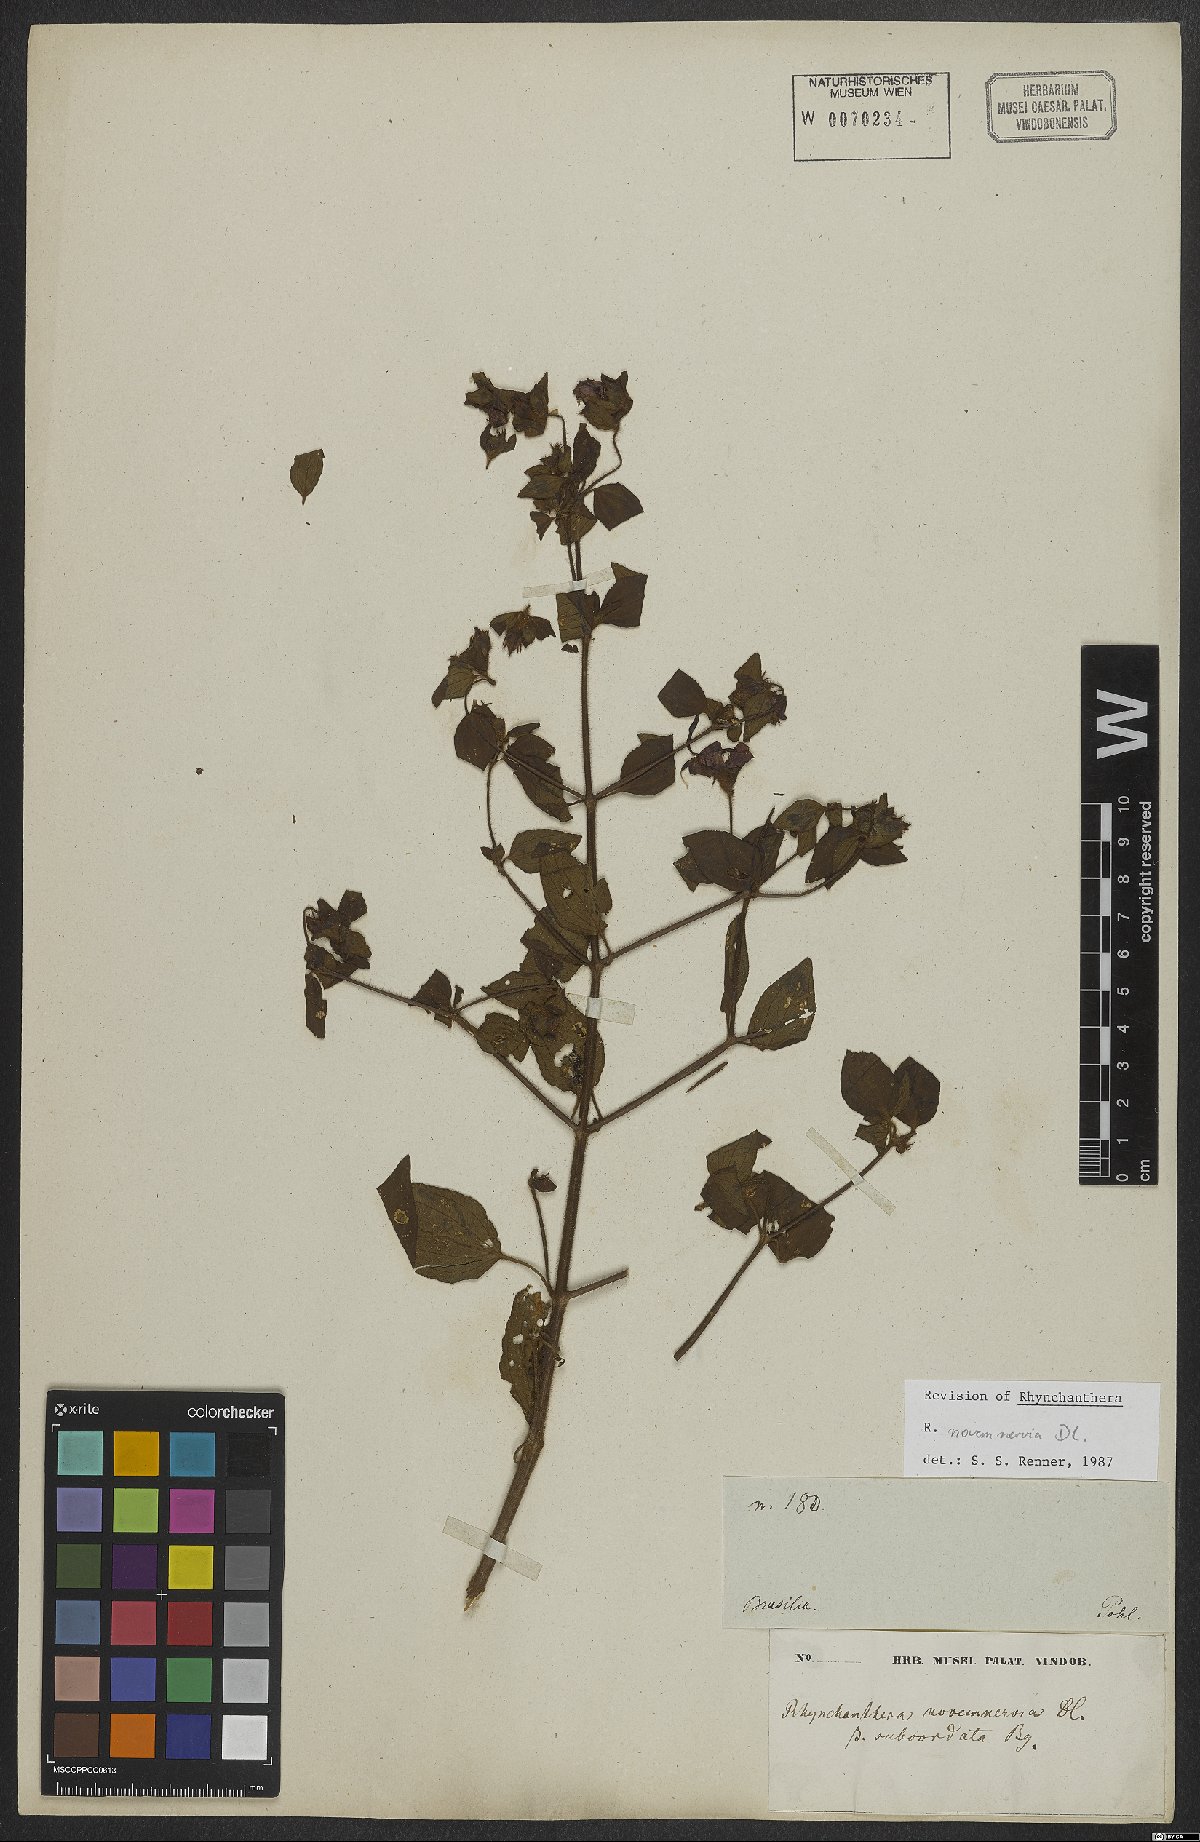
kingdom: Plantae
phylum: Tracheophyta
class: Magnoliopsida
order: Myrtales
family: Melastomataceae
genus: Rhynchanthera
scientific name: Rhynchanthera novemnervia
